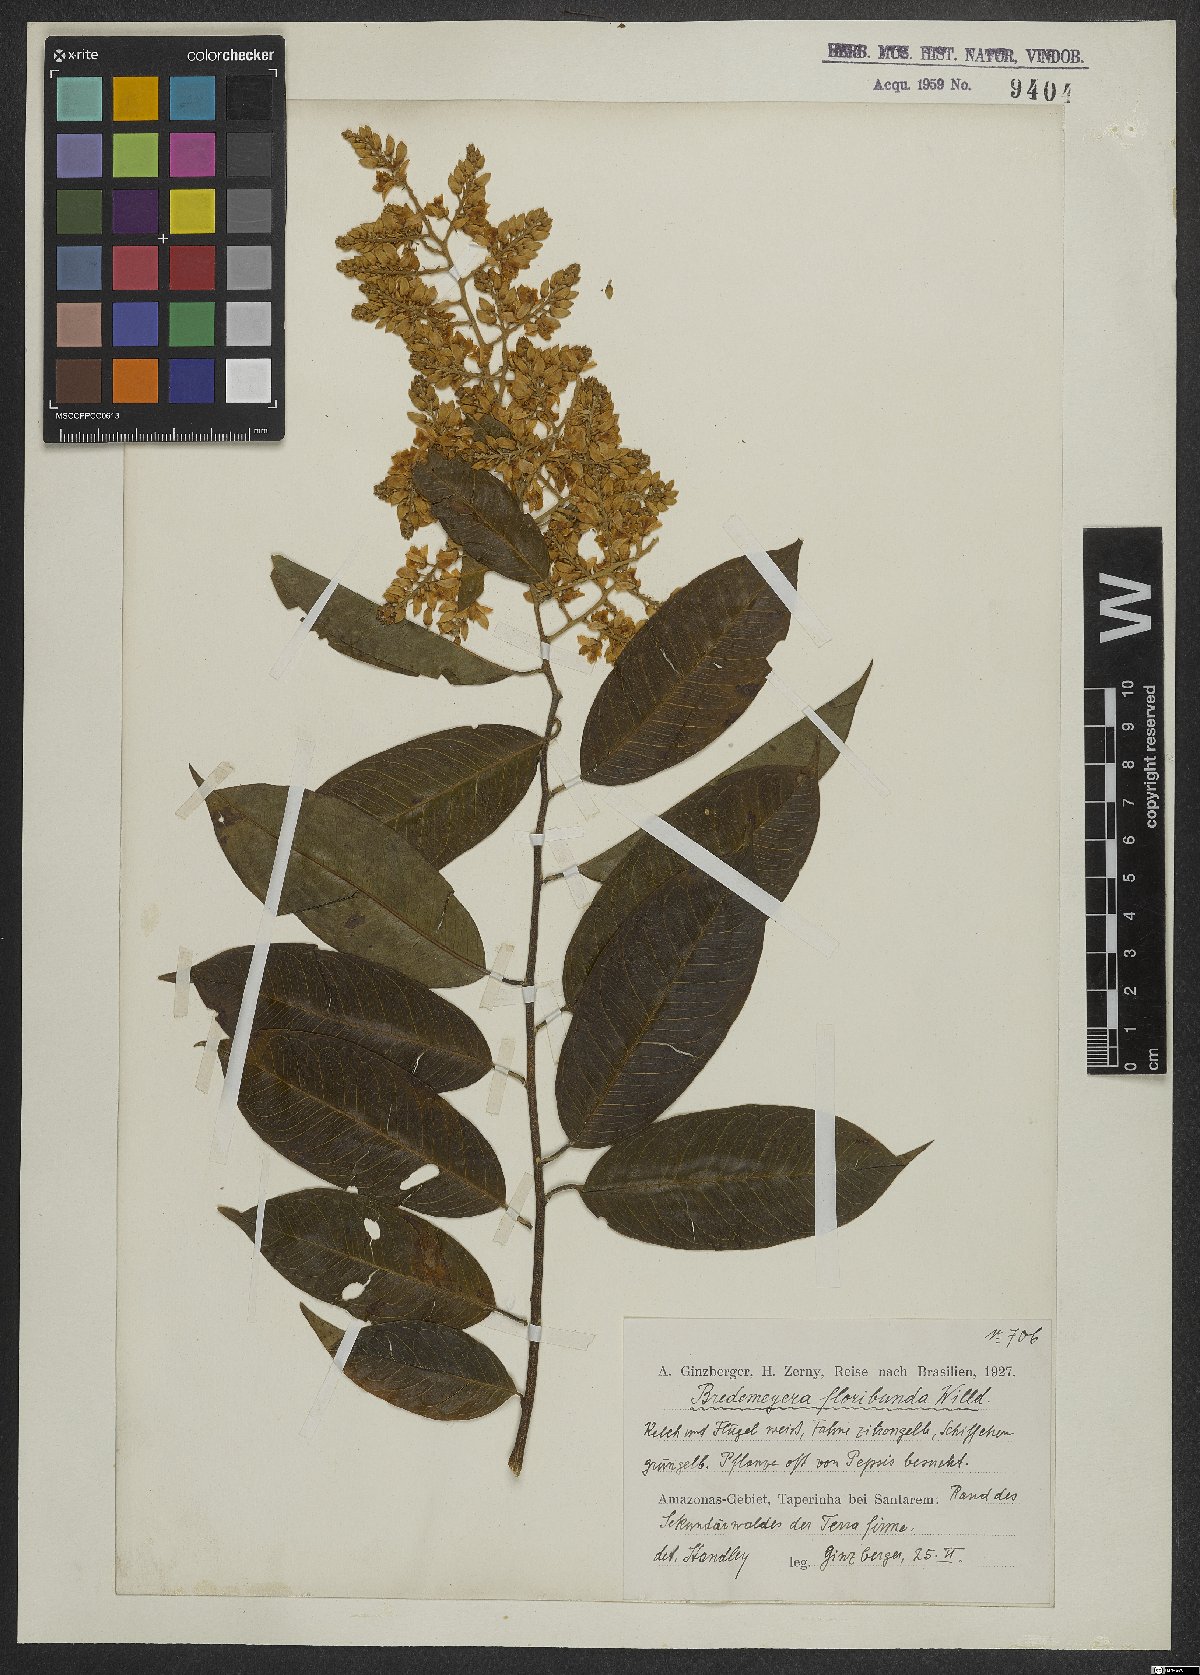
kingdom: Plantae
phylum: Tracheophyta
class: Magnoliopsida
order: Fabales
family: Polygalaceae
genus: Bredemeyera
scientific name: Bredemeyera floribunda
